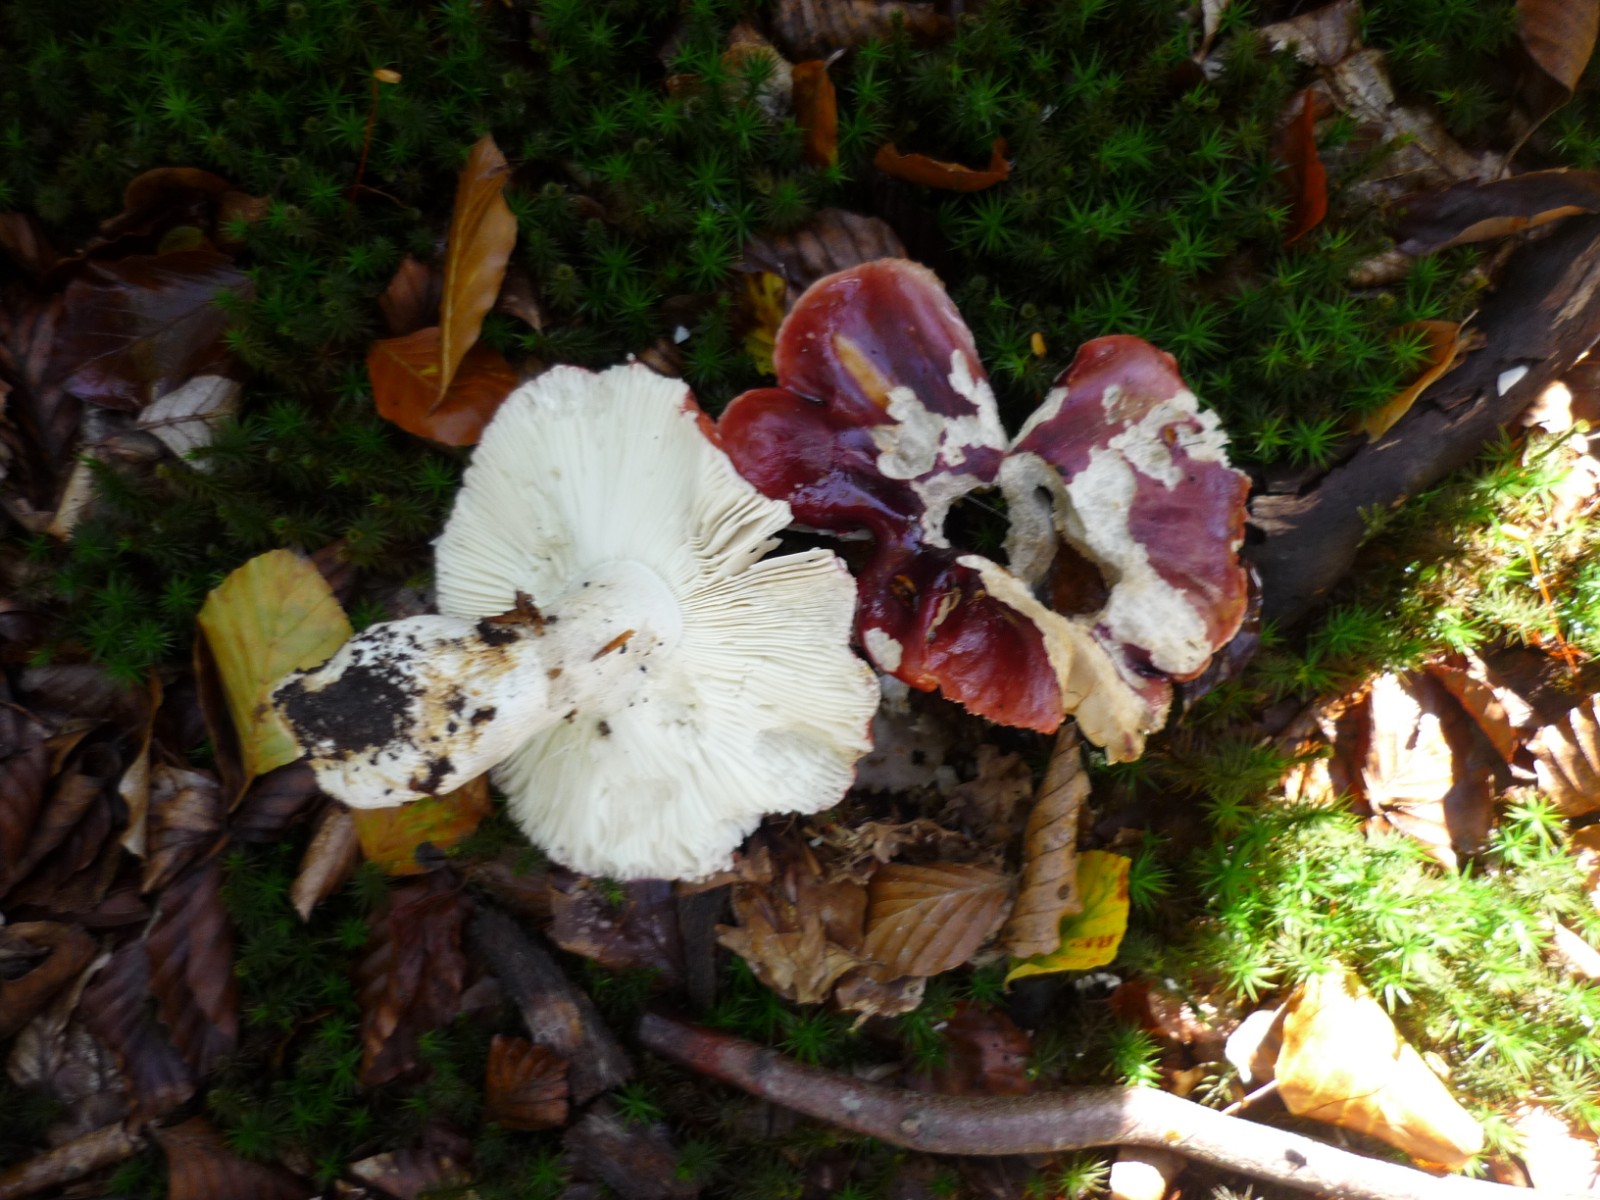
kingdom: Fungi
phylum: Basidiomycota
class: Agaricomycetes
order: Russulales
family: Russulaceae
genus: Russula
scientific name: Russula viscida
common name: knippe-skørhat
